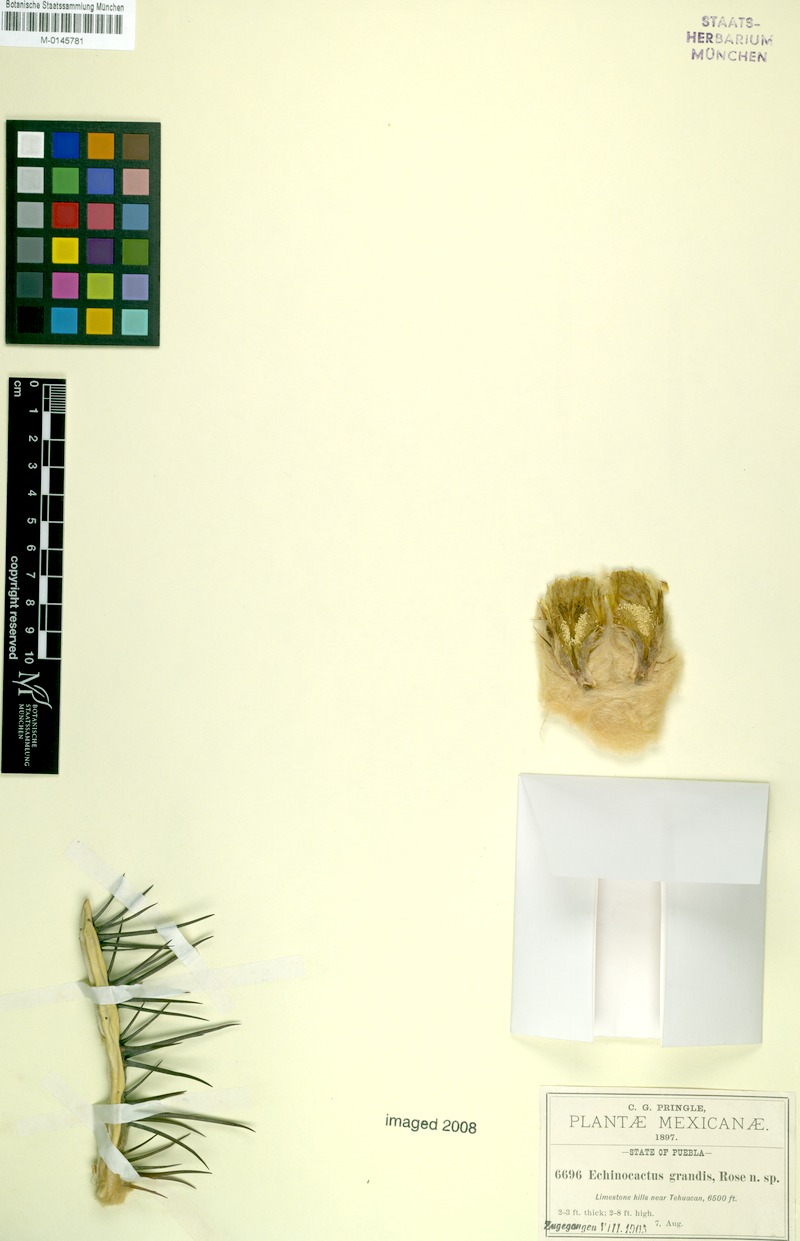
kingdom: Plantae
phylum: Tracheophyta
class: Magnoliopsida
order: Caryophyllales
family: Cactaceae
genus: Echinocactus
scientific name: Echinocactus platyacanthus
